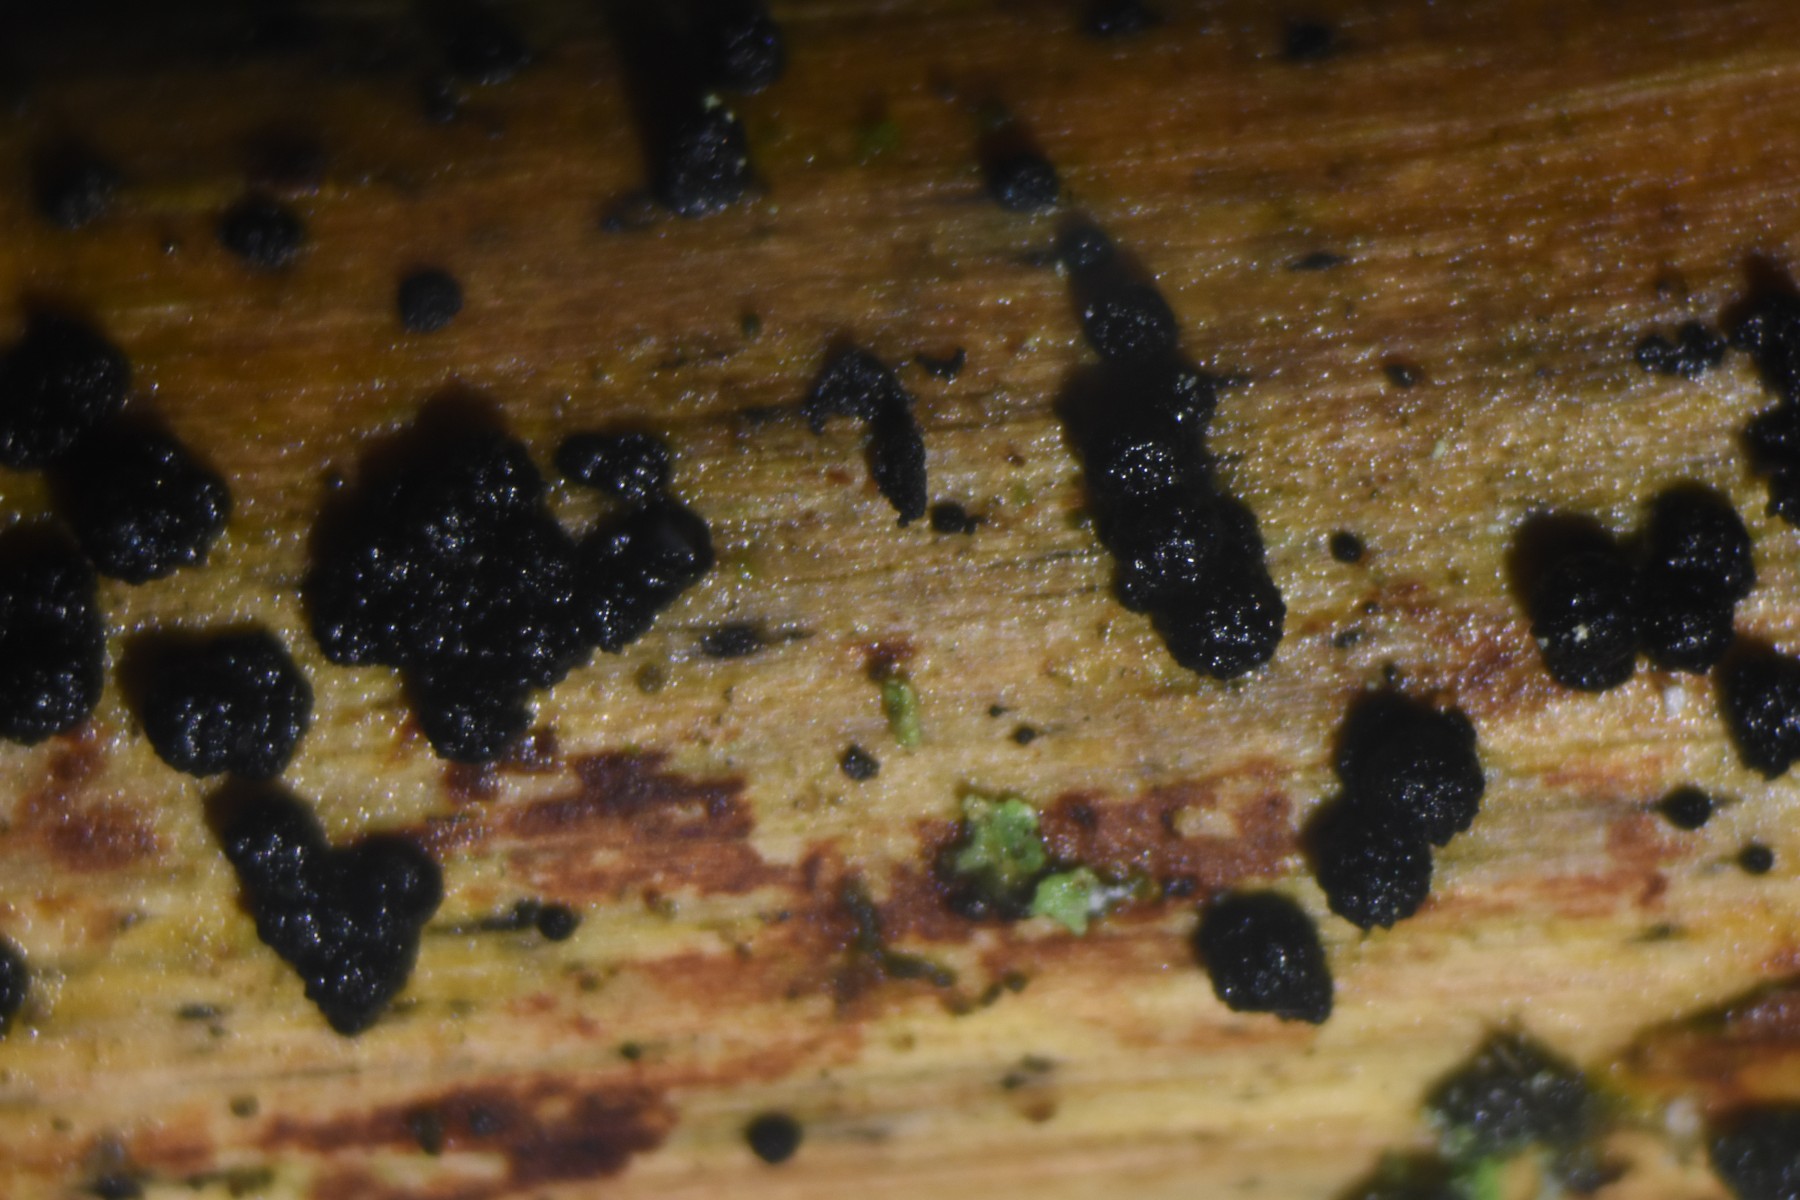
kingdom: Fungi
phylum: Ascomycota
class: Sordariomycetes
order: Coronophorales
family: Bertiaceae
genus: Bertia
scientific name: Bertia moriformis
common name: almindelig morbærkerne
